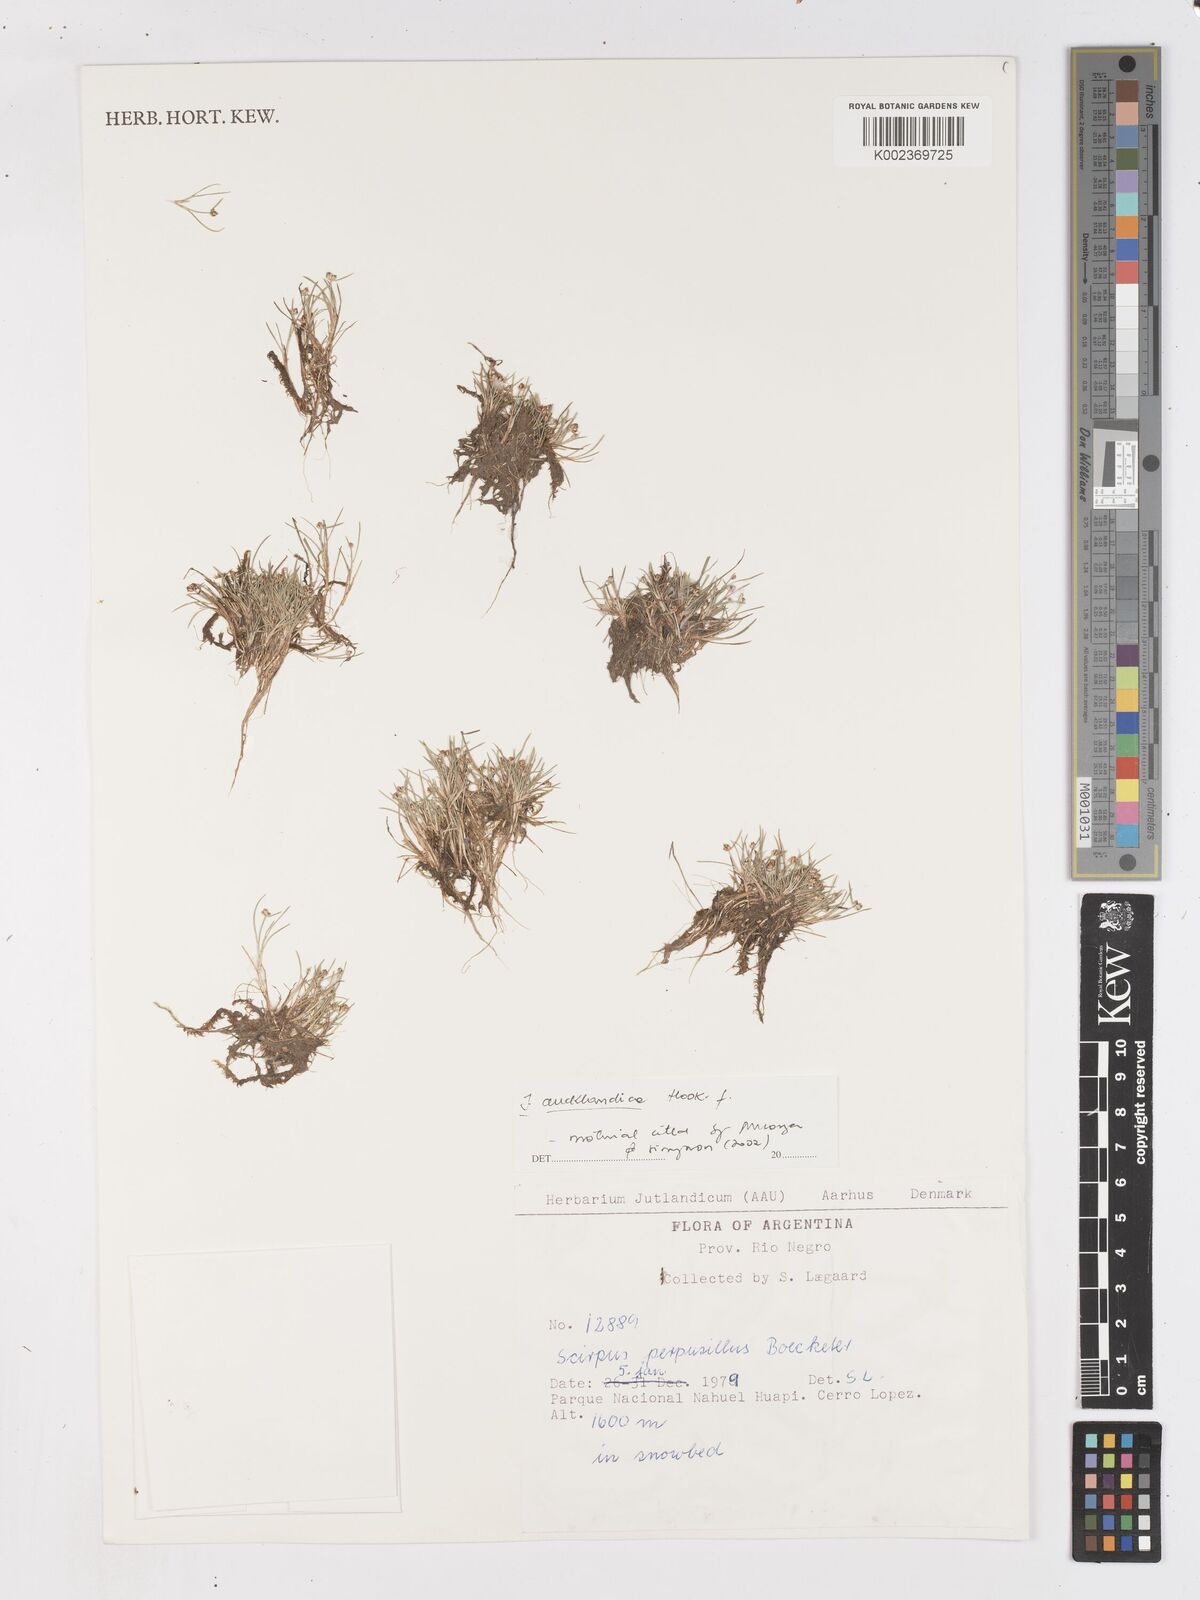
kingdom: Plantae
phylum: Tracheophyta
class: Liliopsida
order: Poales
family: Cyperaceae
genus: Isolepis
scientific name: Isolepis aucklandica
